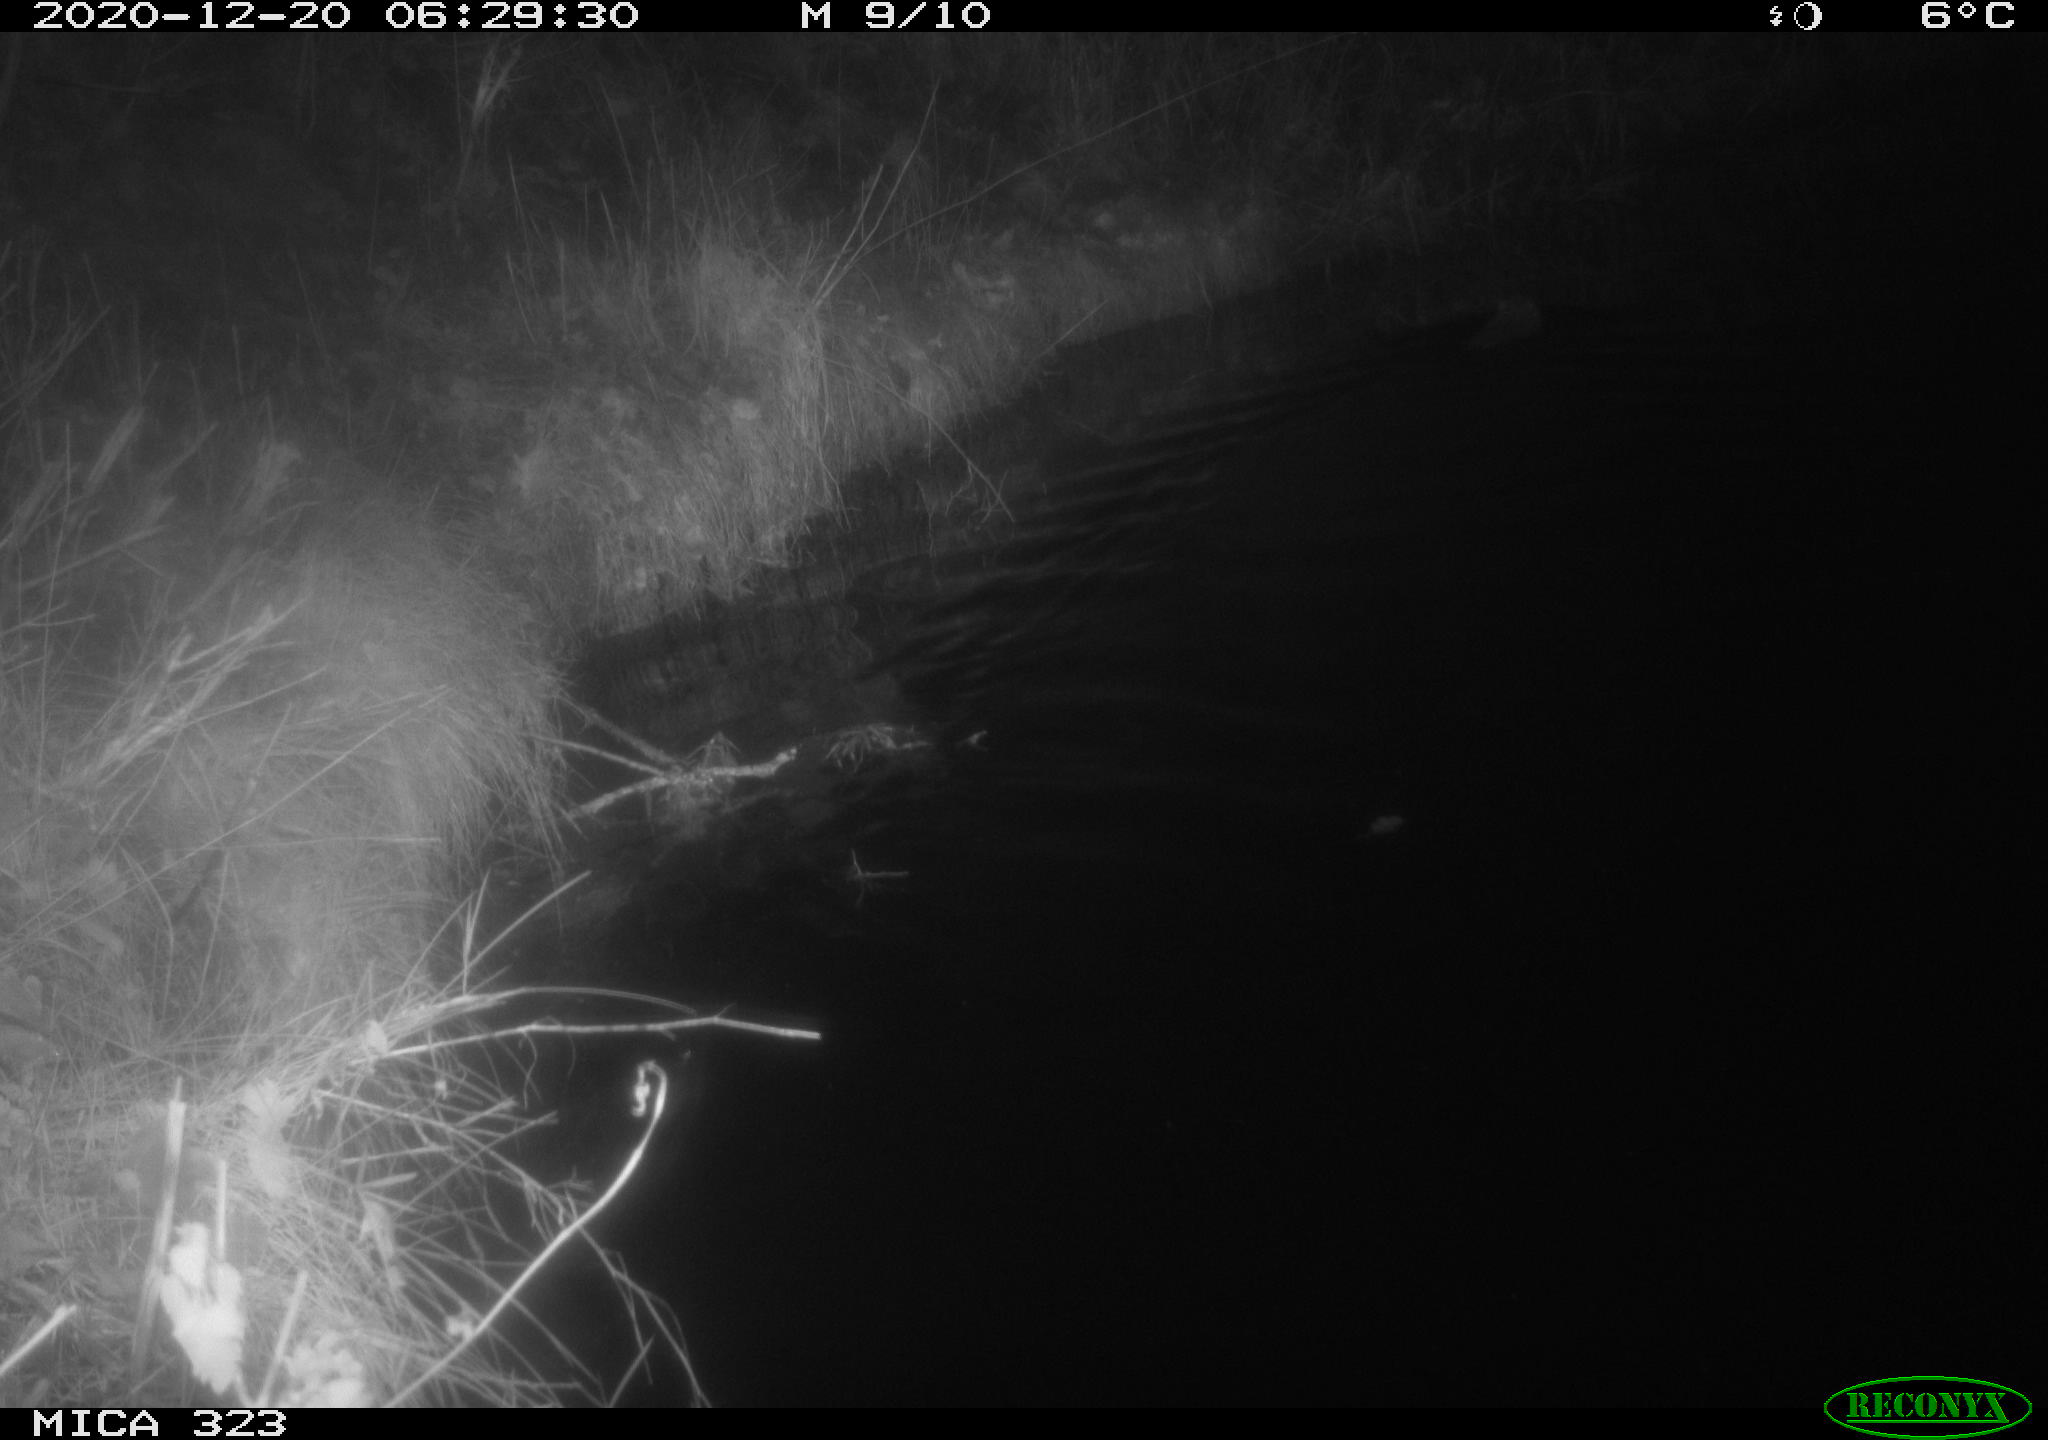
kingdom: Animalia
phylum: Chordata
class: Mammalia
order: Rodentia
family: Myocastoridae
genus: Myocastor
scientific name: Myocastor coypus
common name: Coypu
